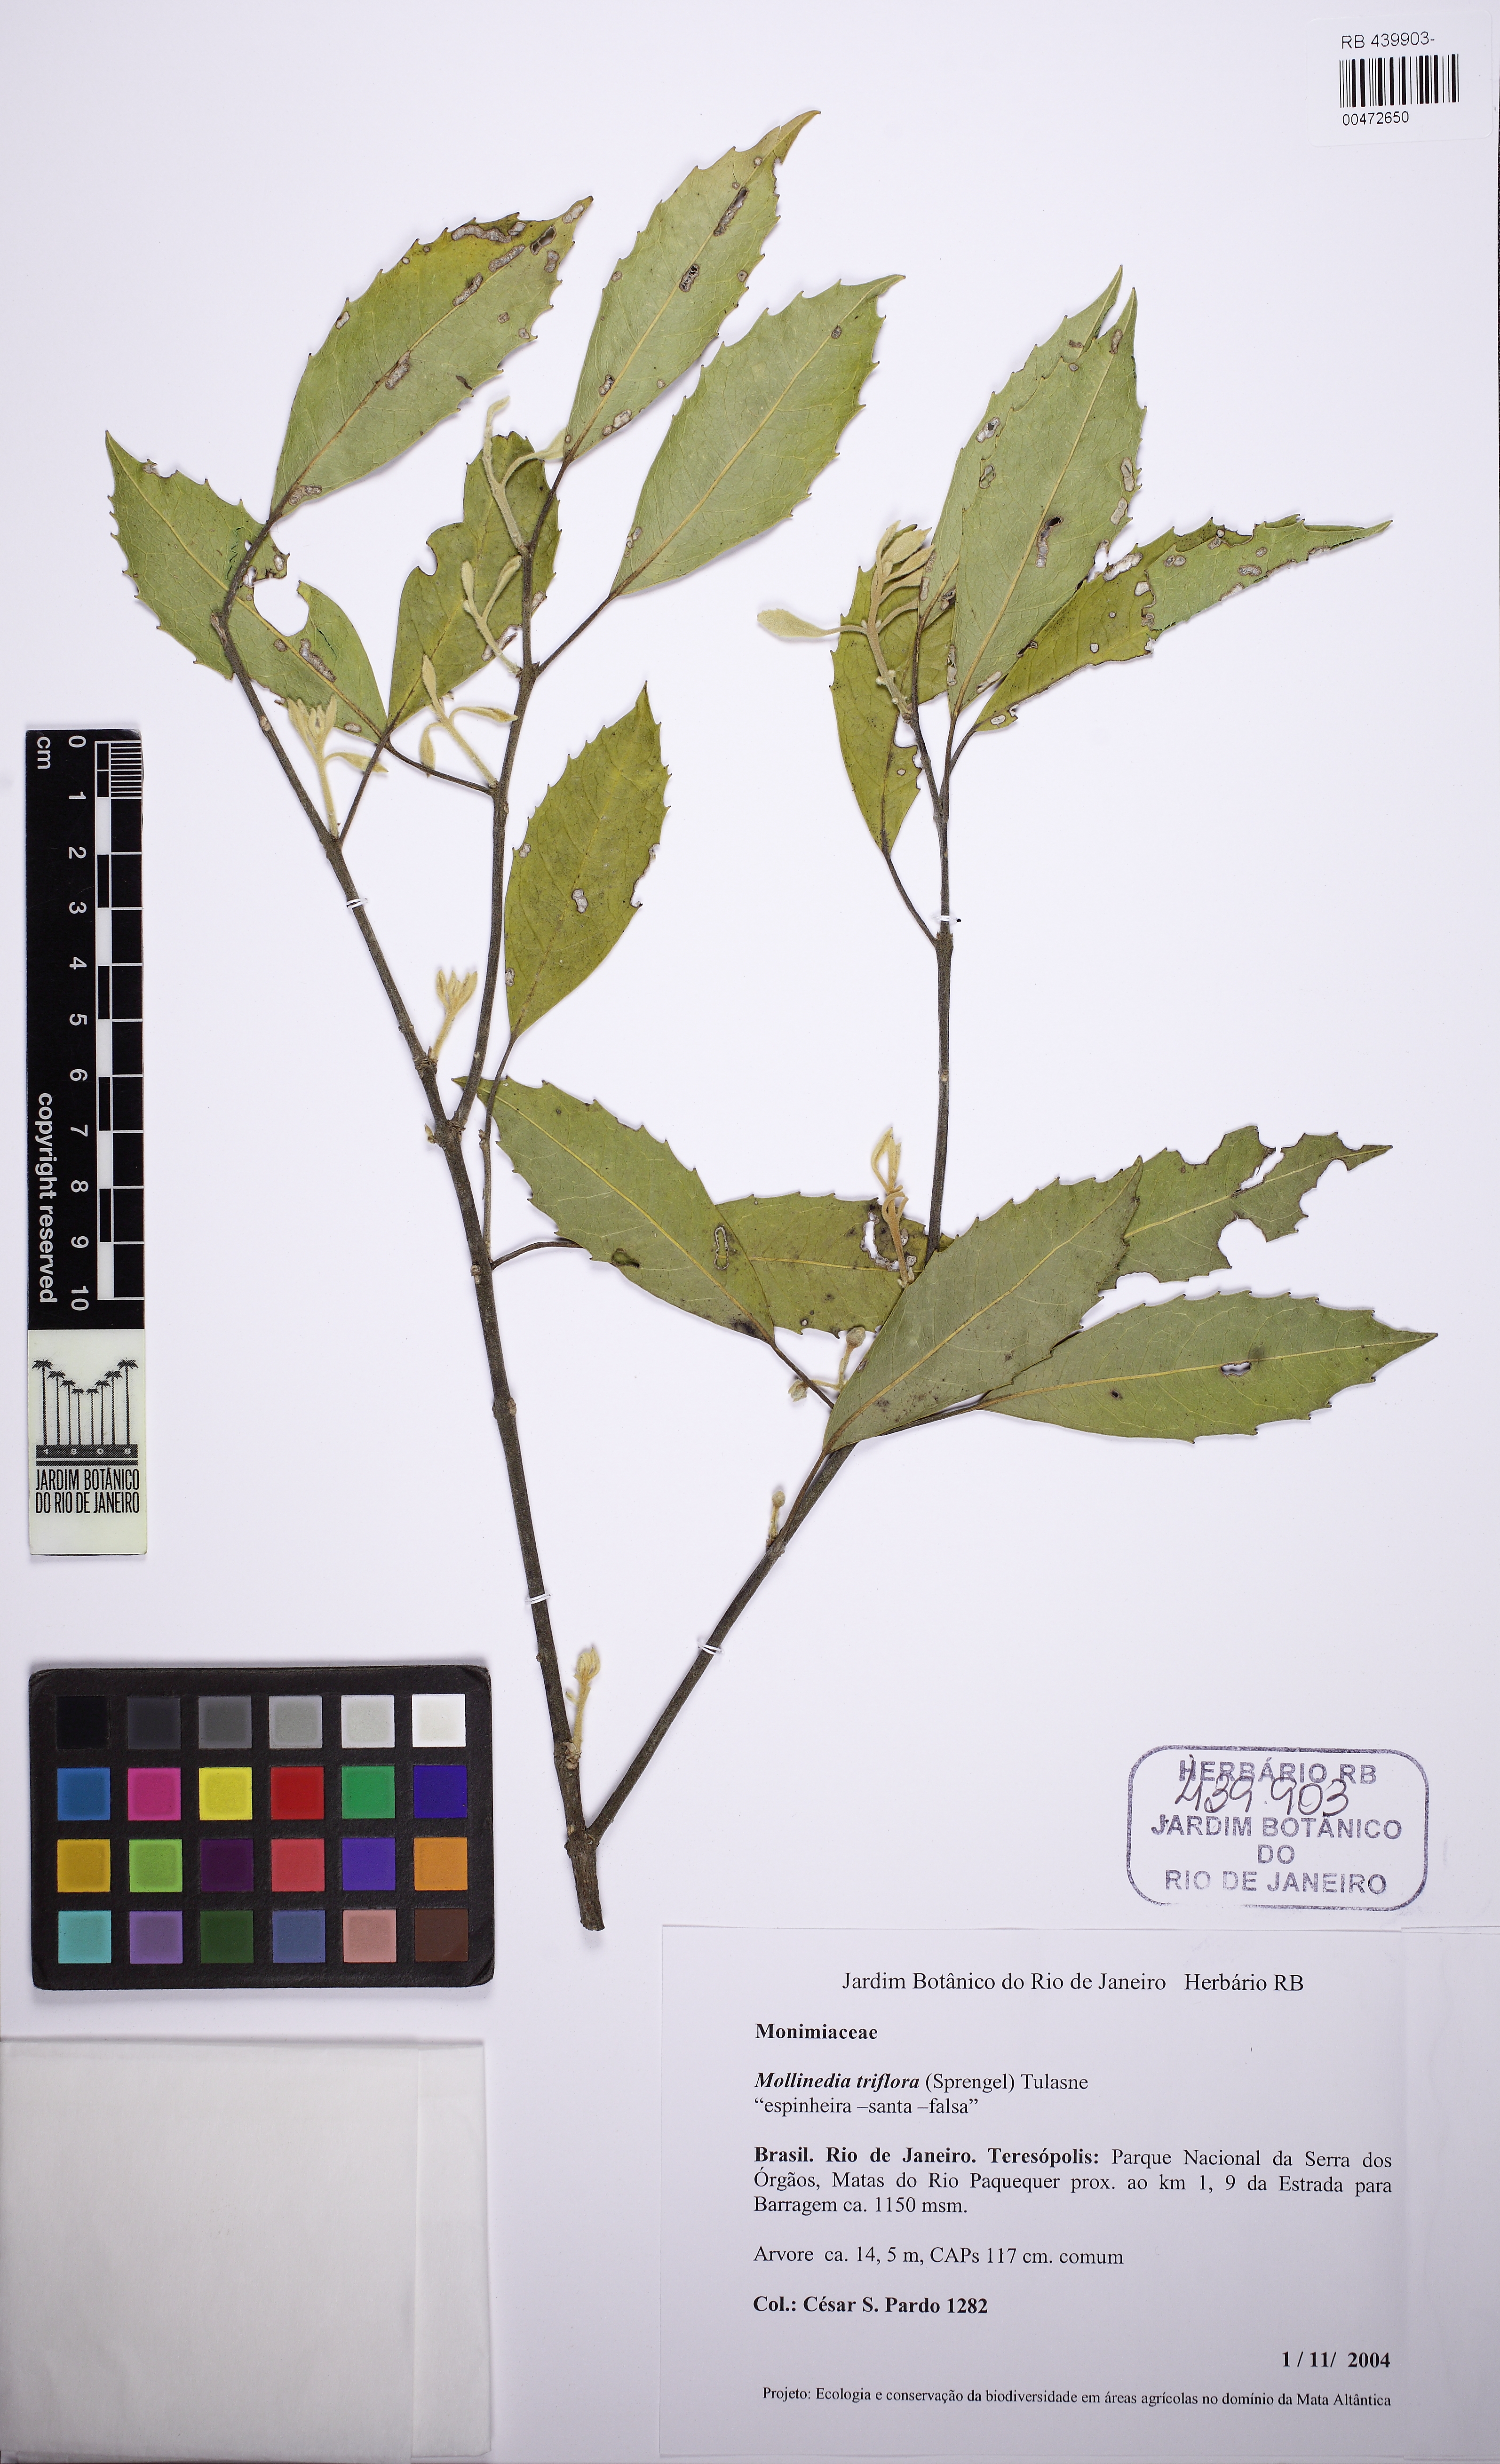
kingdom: Plantae
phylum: Tracheophyta
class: Magnoliopsida
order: Laurales
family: Monimiaceae
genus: Mollinedia
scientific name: Mollinedia triflora
